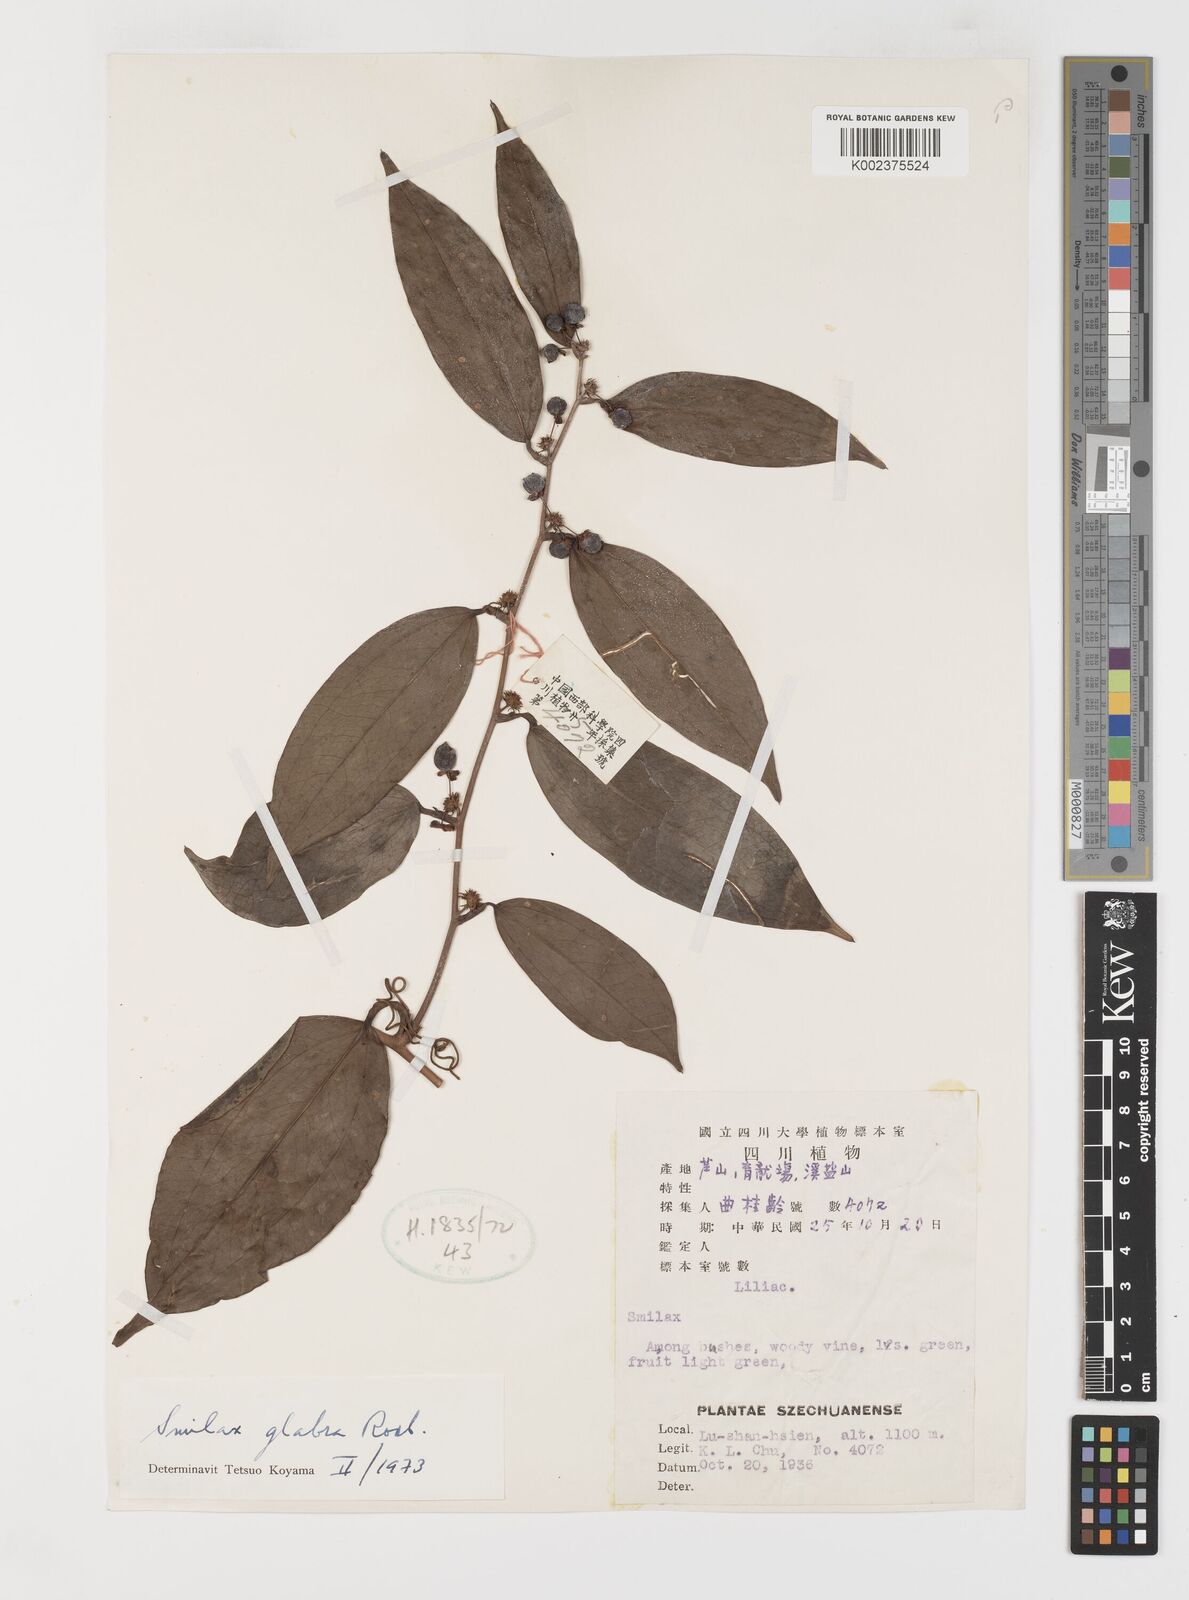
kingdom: Plantae
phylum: Tracheophyta
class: Liliopsida
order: Liliales
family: Smilacaceae
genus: Smilax
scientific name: Smilax glabra
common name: Chinese smilax
